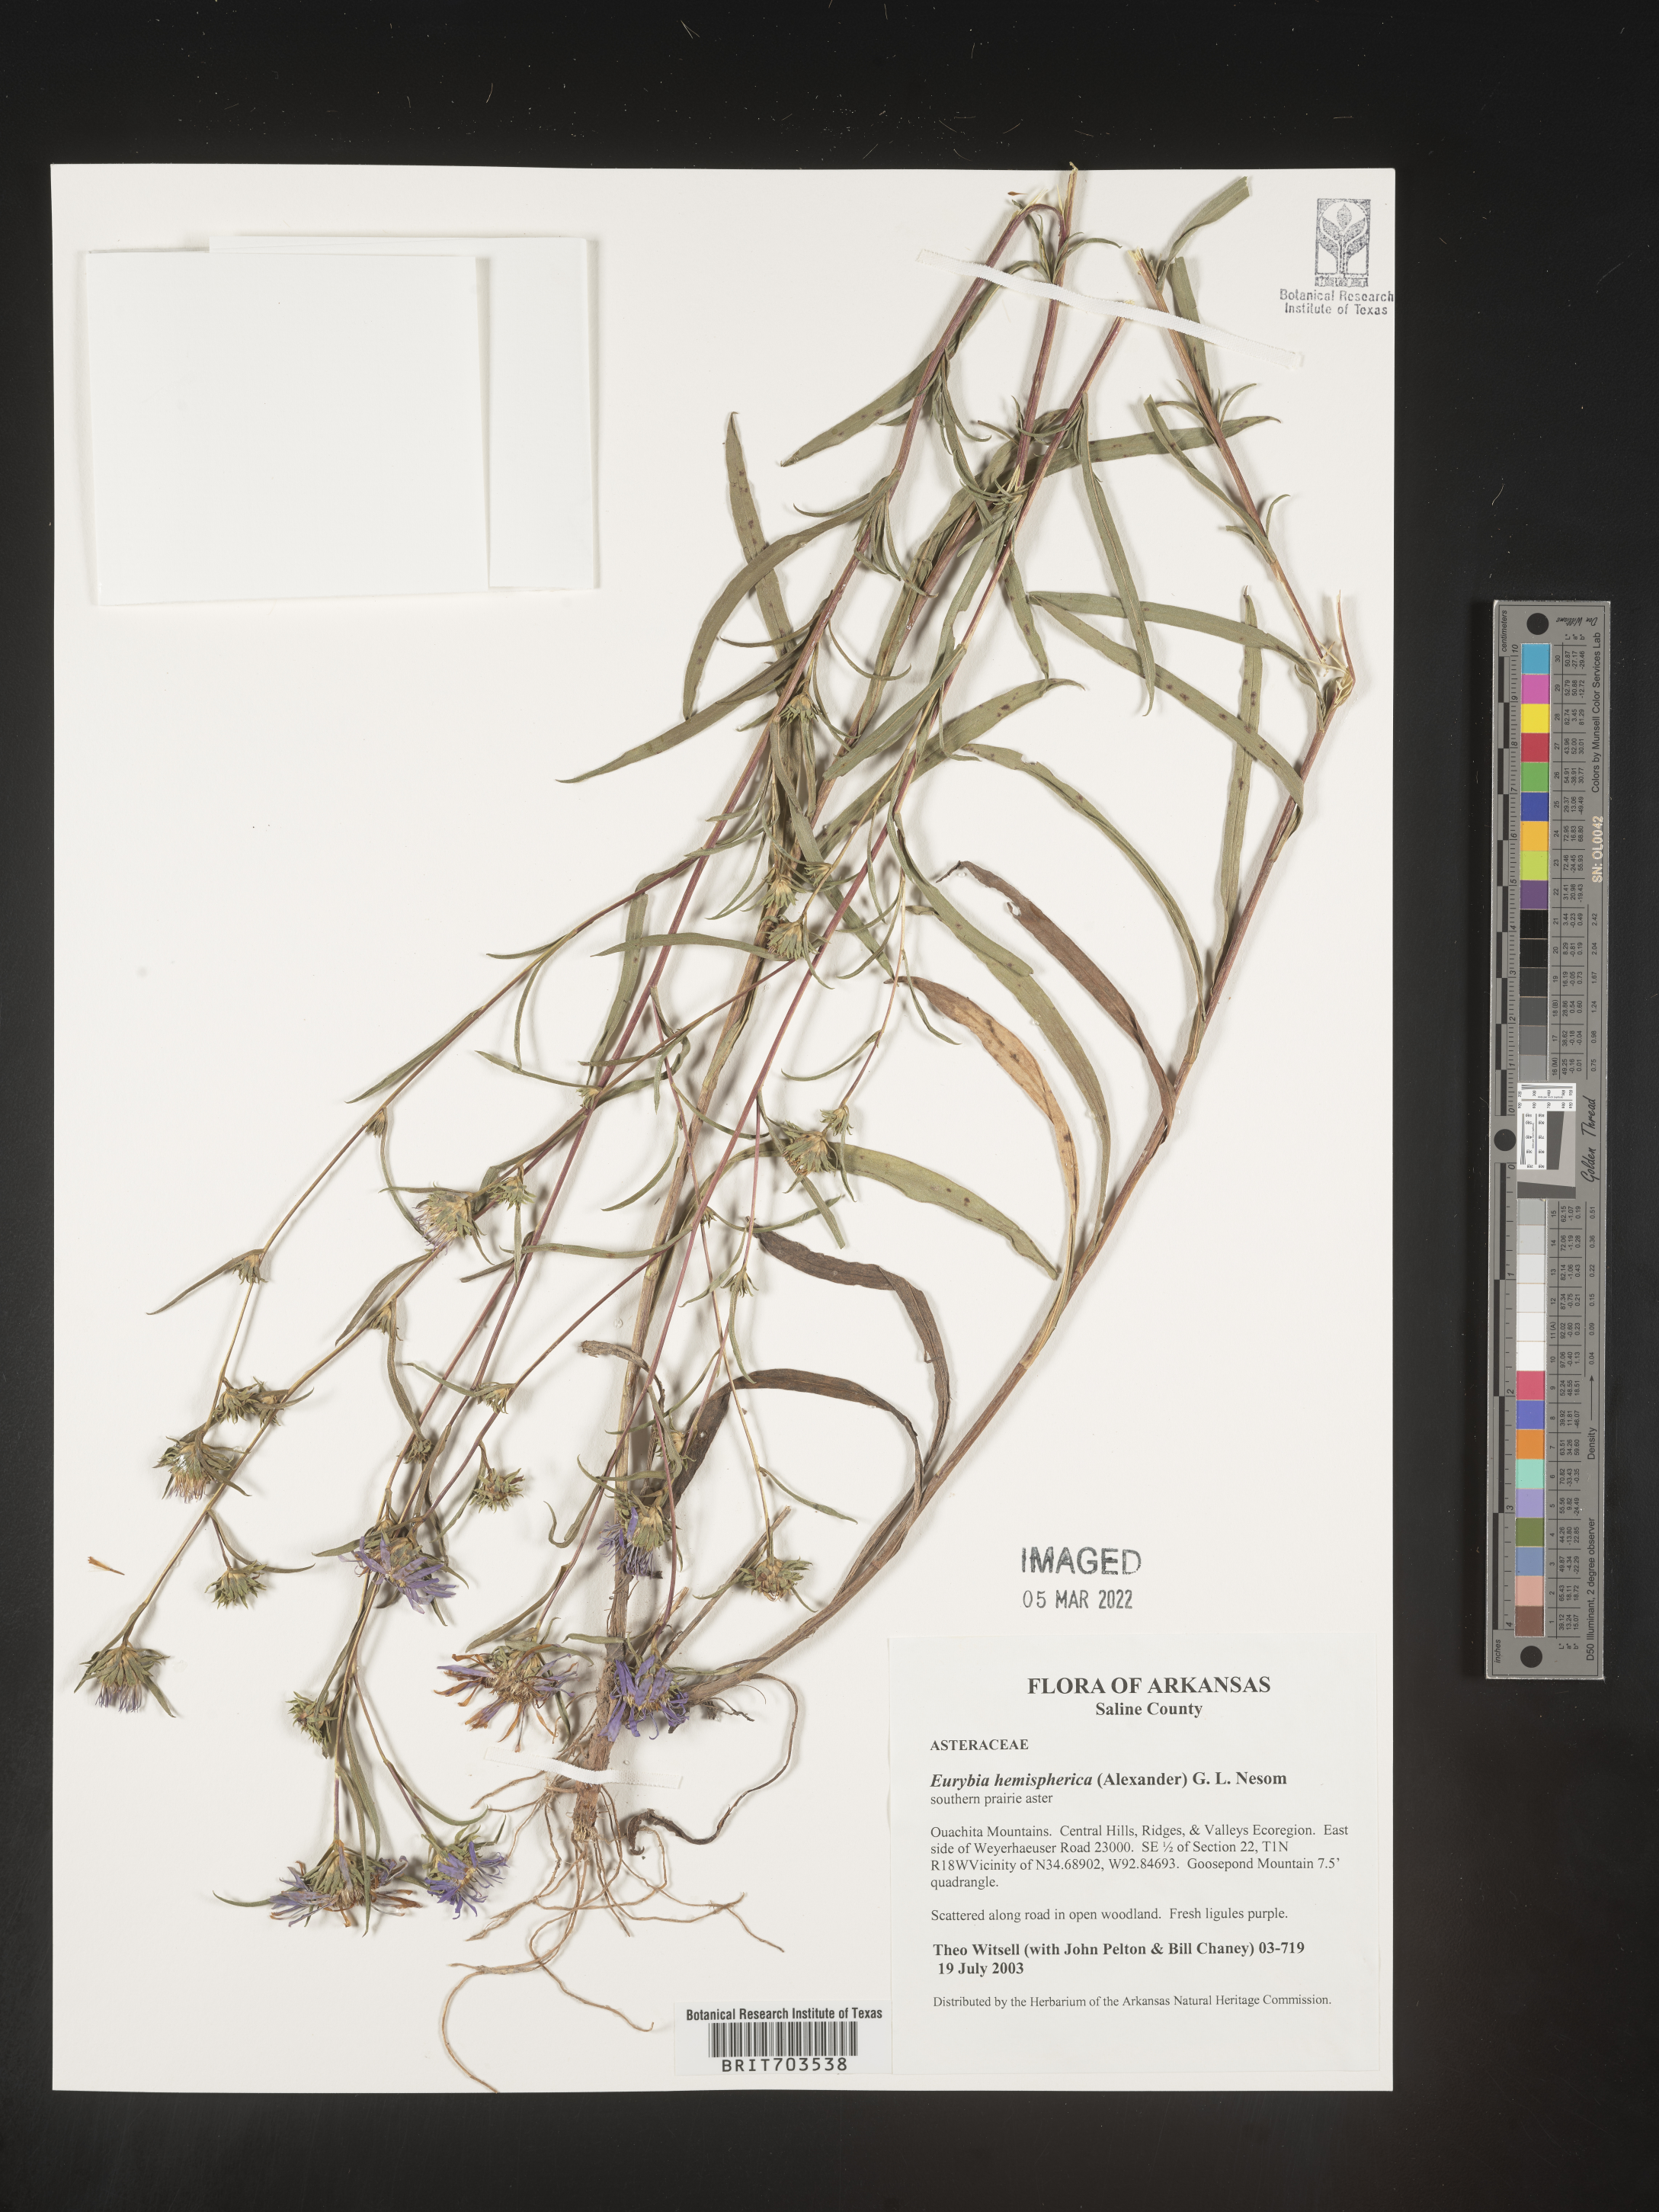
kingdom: Plantae
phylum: Tracheophyta
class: Magnoliopsida
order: Asterales
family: Asteraceae
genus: Eurybia
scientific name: Eurybia hemispherica
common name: Showy aster
